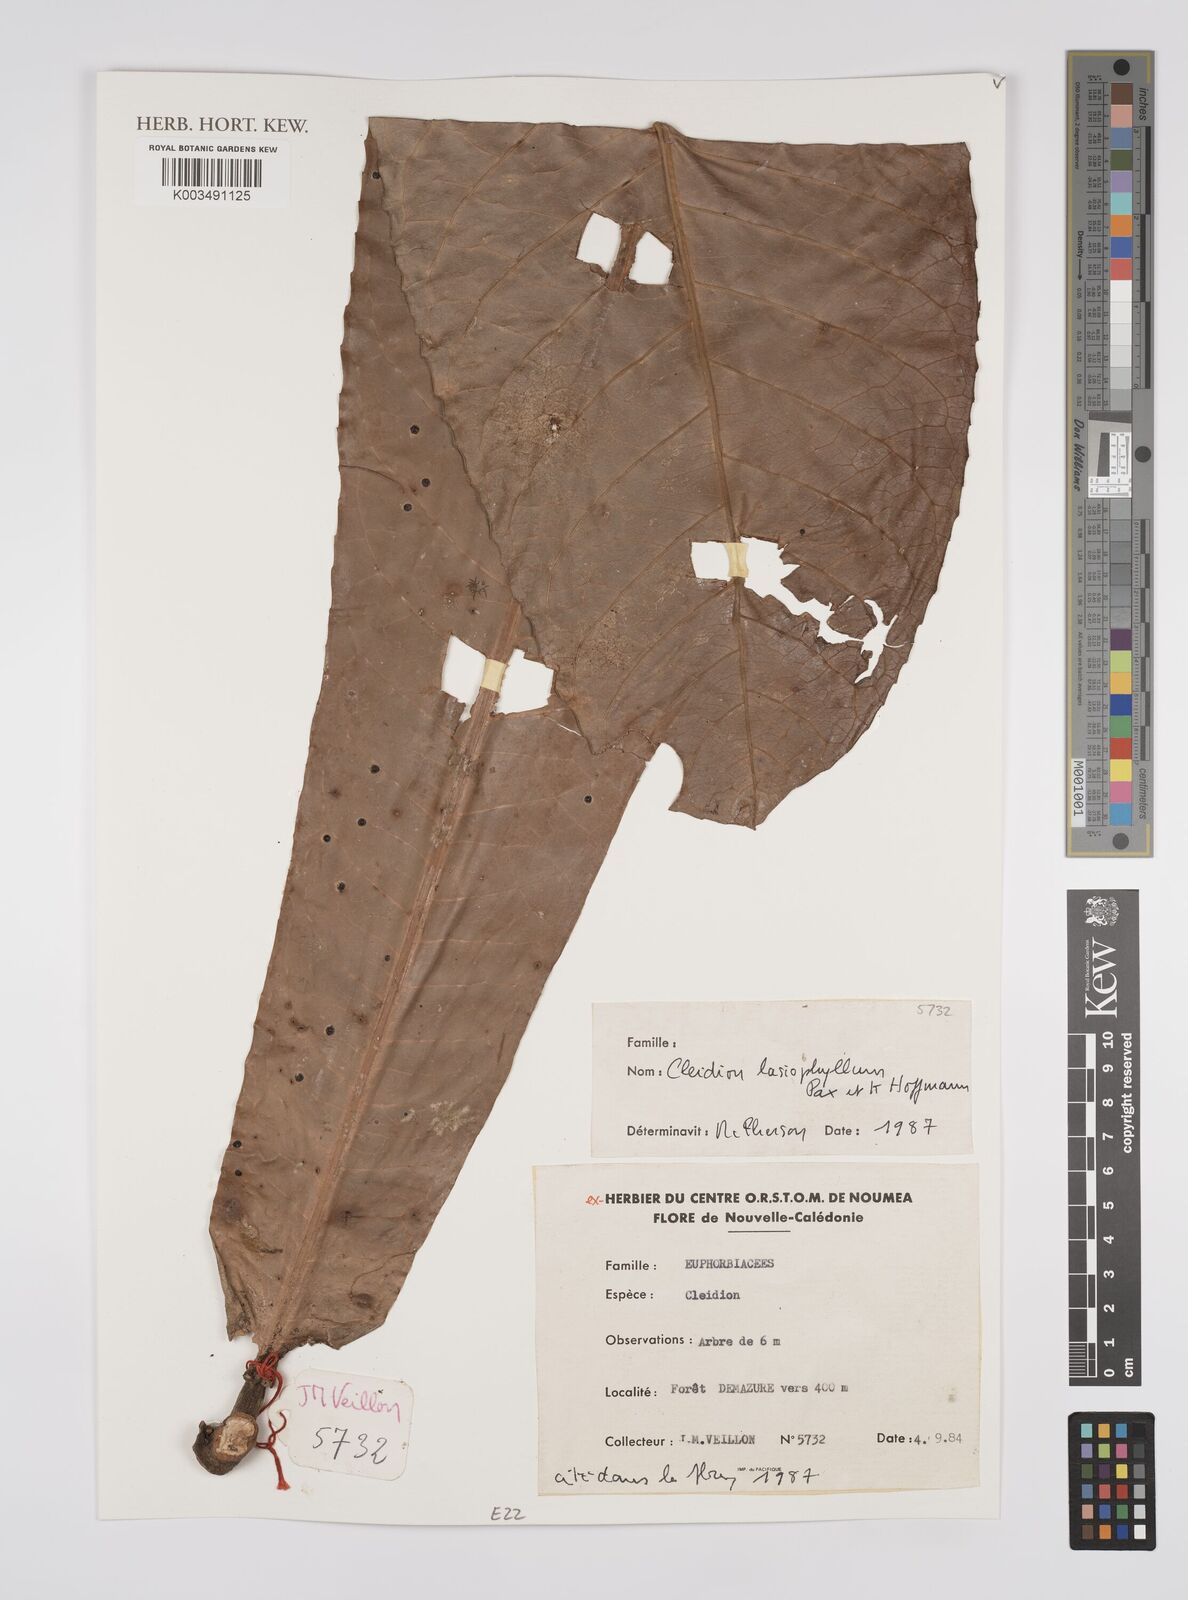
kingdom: Plantae
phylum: Tracheophyta
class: Magnoliopsida
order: Malpighiales
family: Euphorbiaceae
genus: Cleidion
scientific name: Cleidion lasiophyllum
